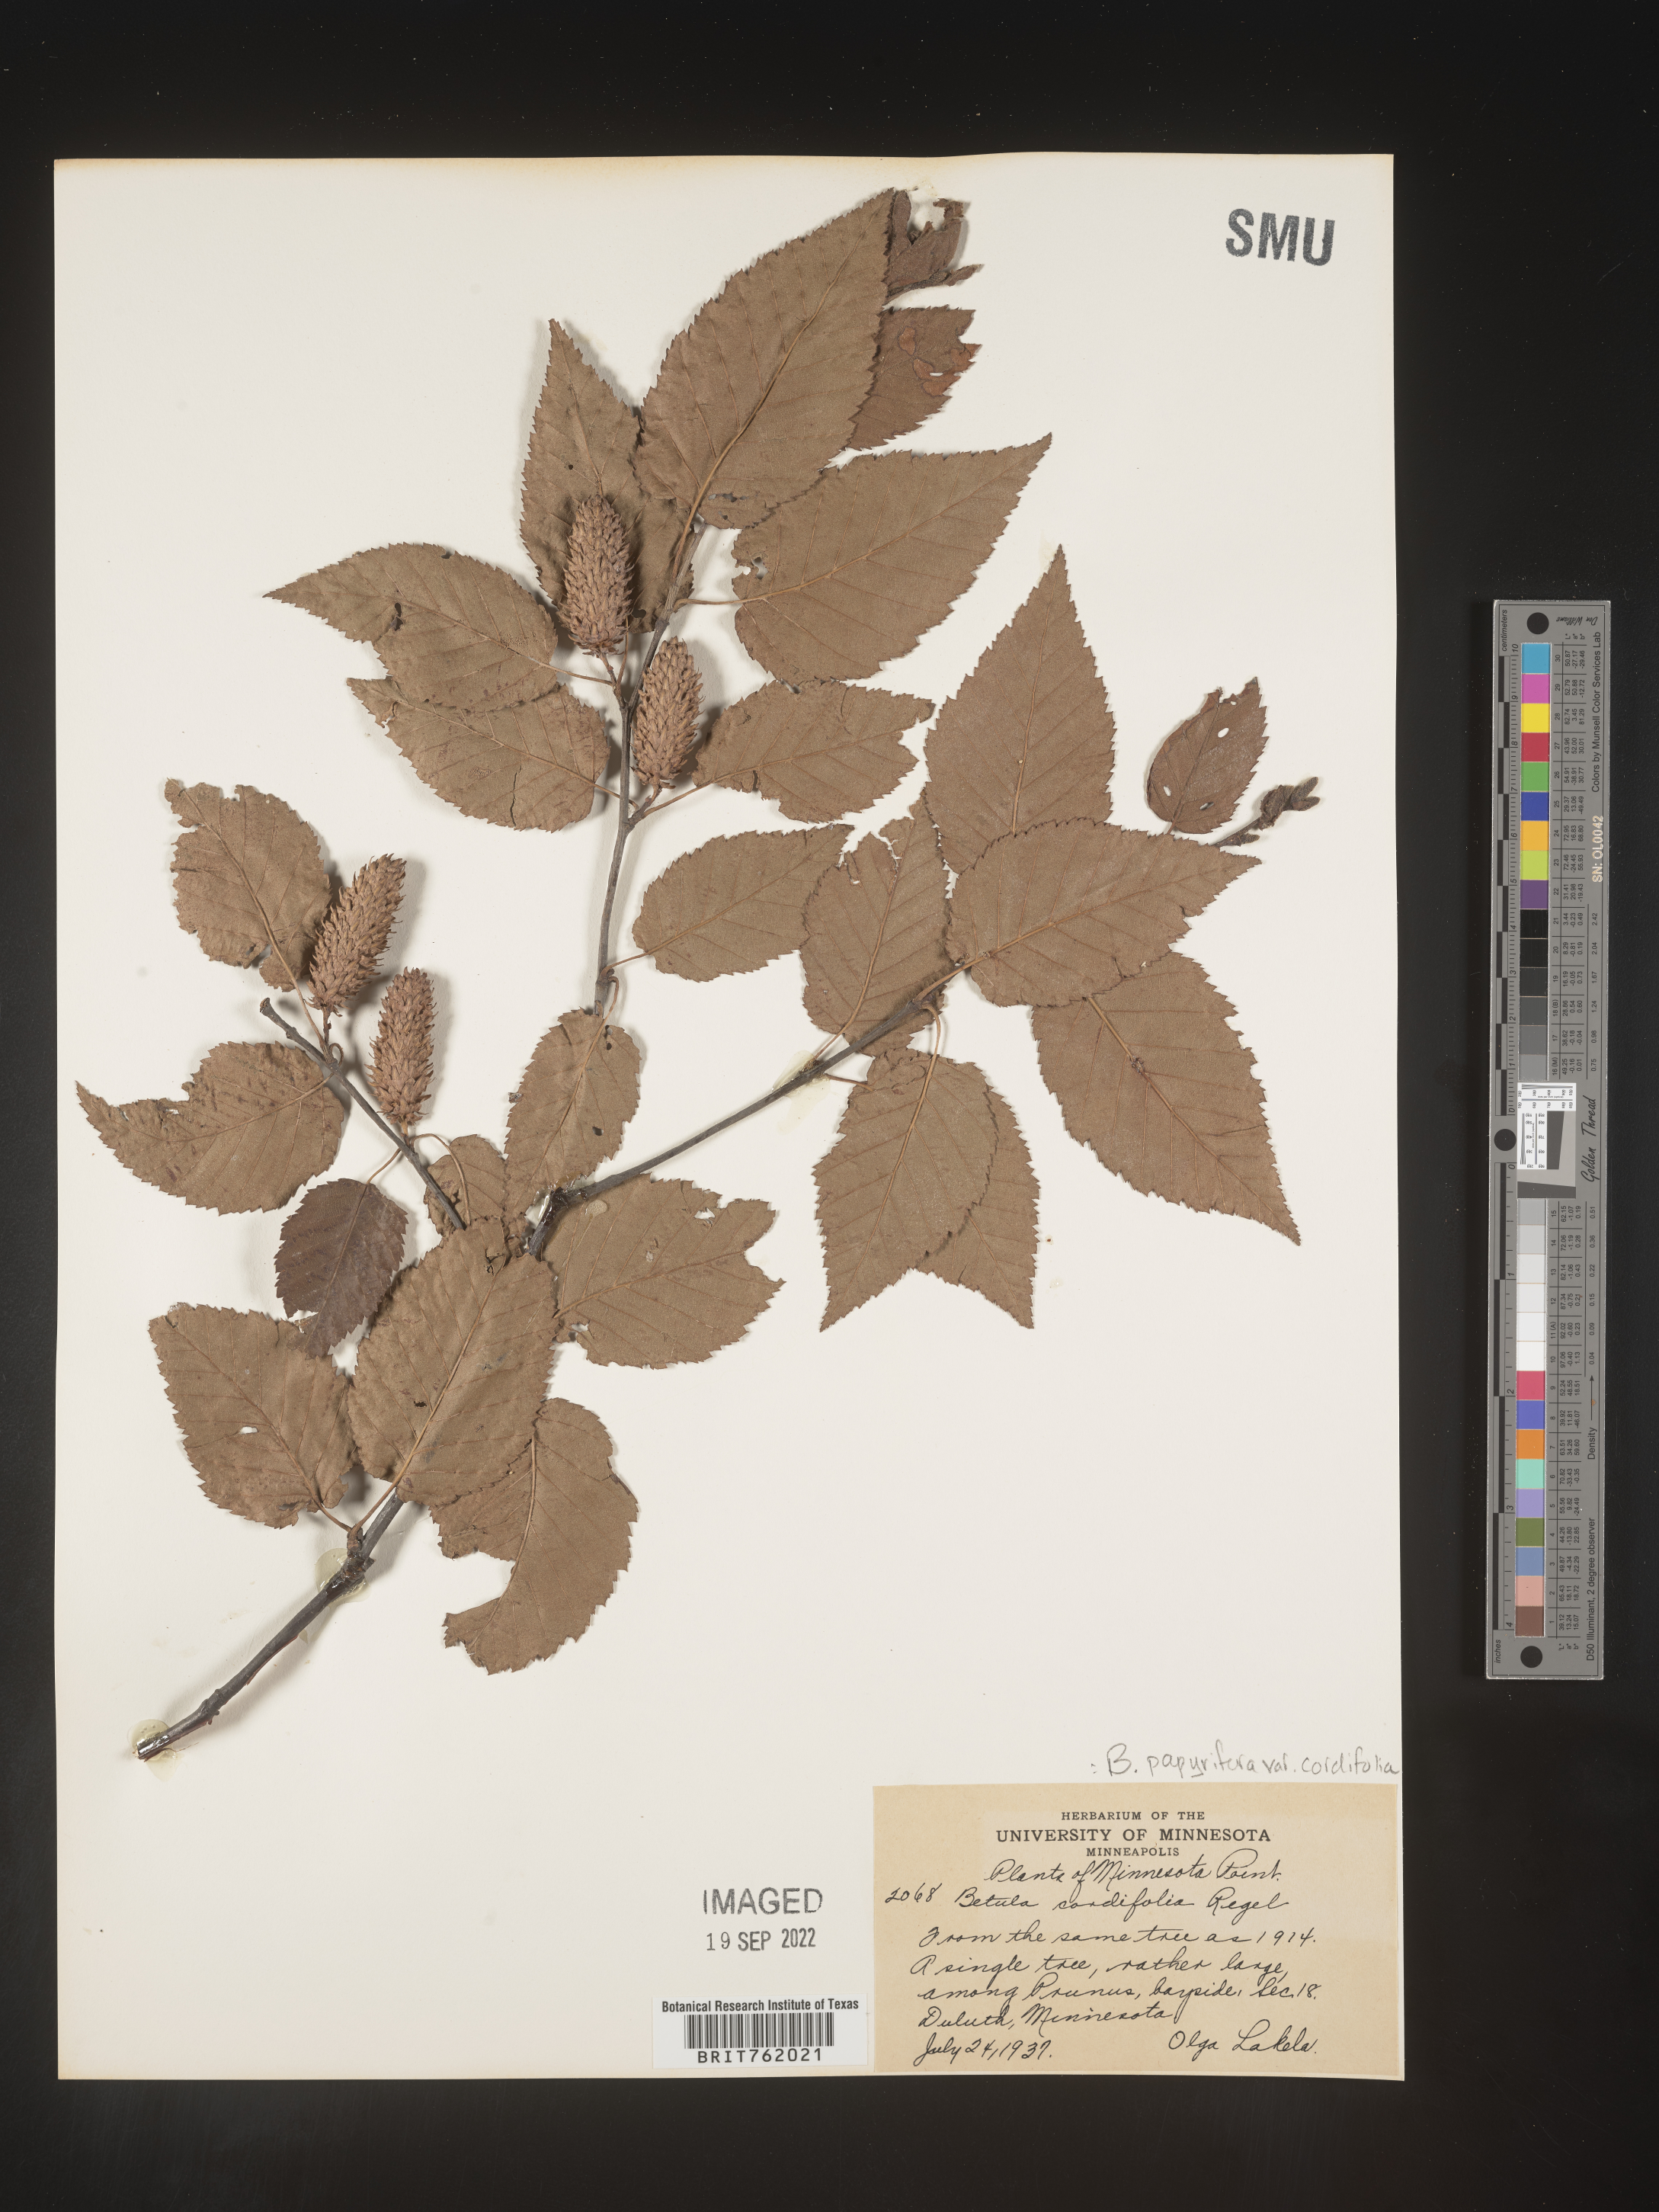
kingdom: Plantae
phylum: Tracheophyta
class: Magnoliopsida
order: Fagales
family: Betulaceae
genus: Betula
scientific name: Betula papyrifera
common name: Paper birch
